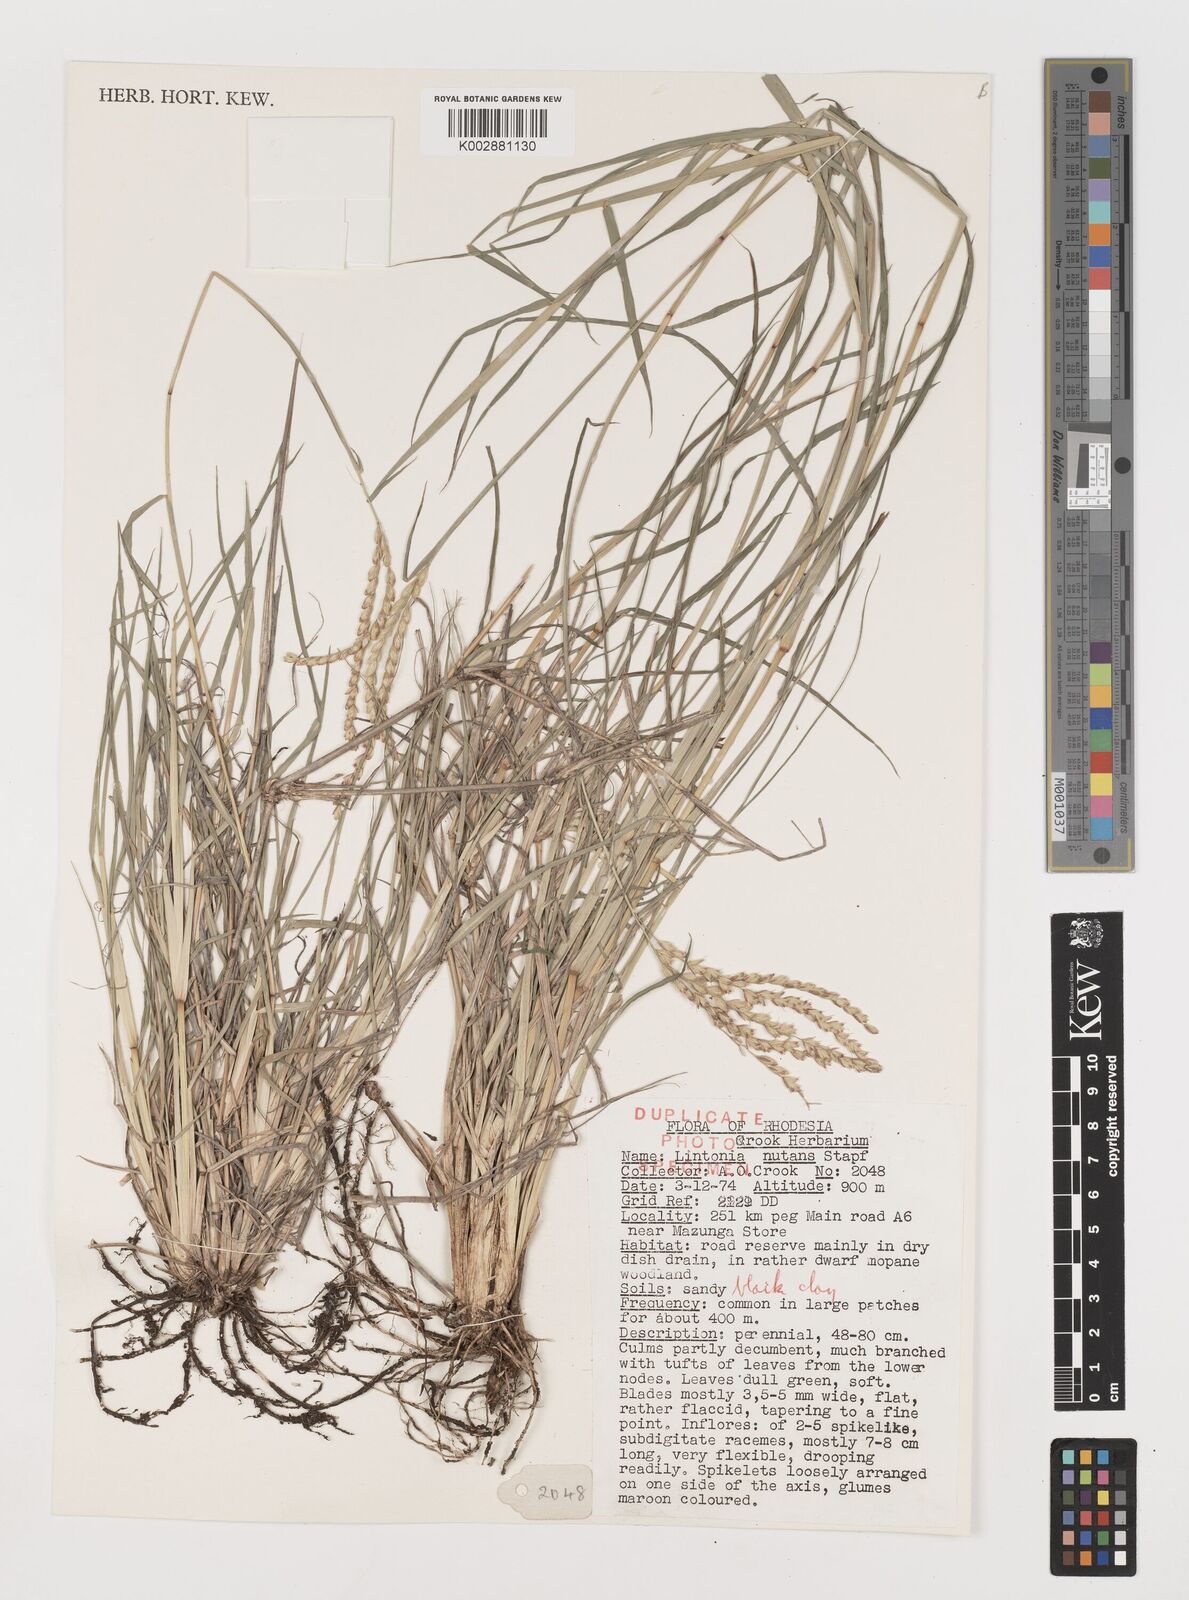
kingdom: Plantae
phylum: Tracheophyta
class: Liliopsida
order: Poales
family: Poaceae
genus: Chloris
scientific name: Chloris nutans
